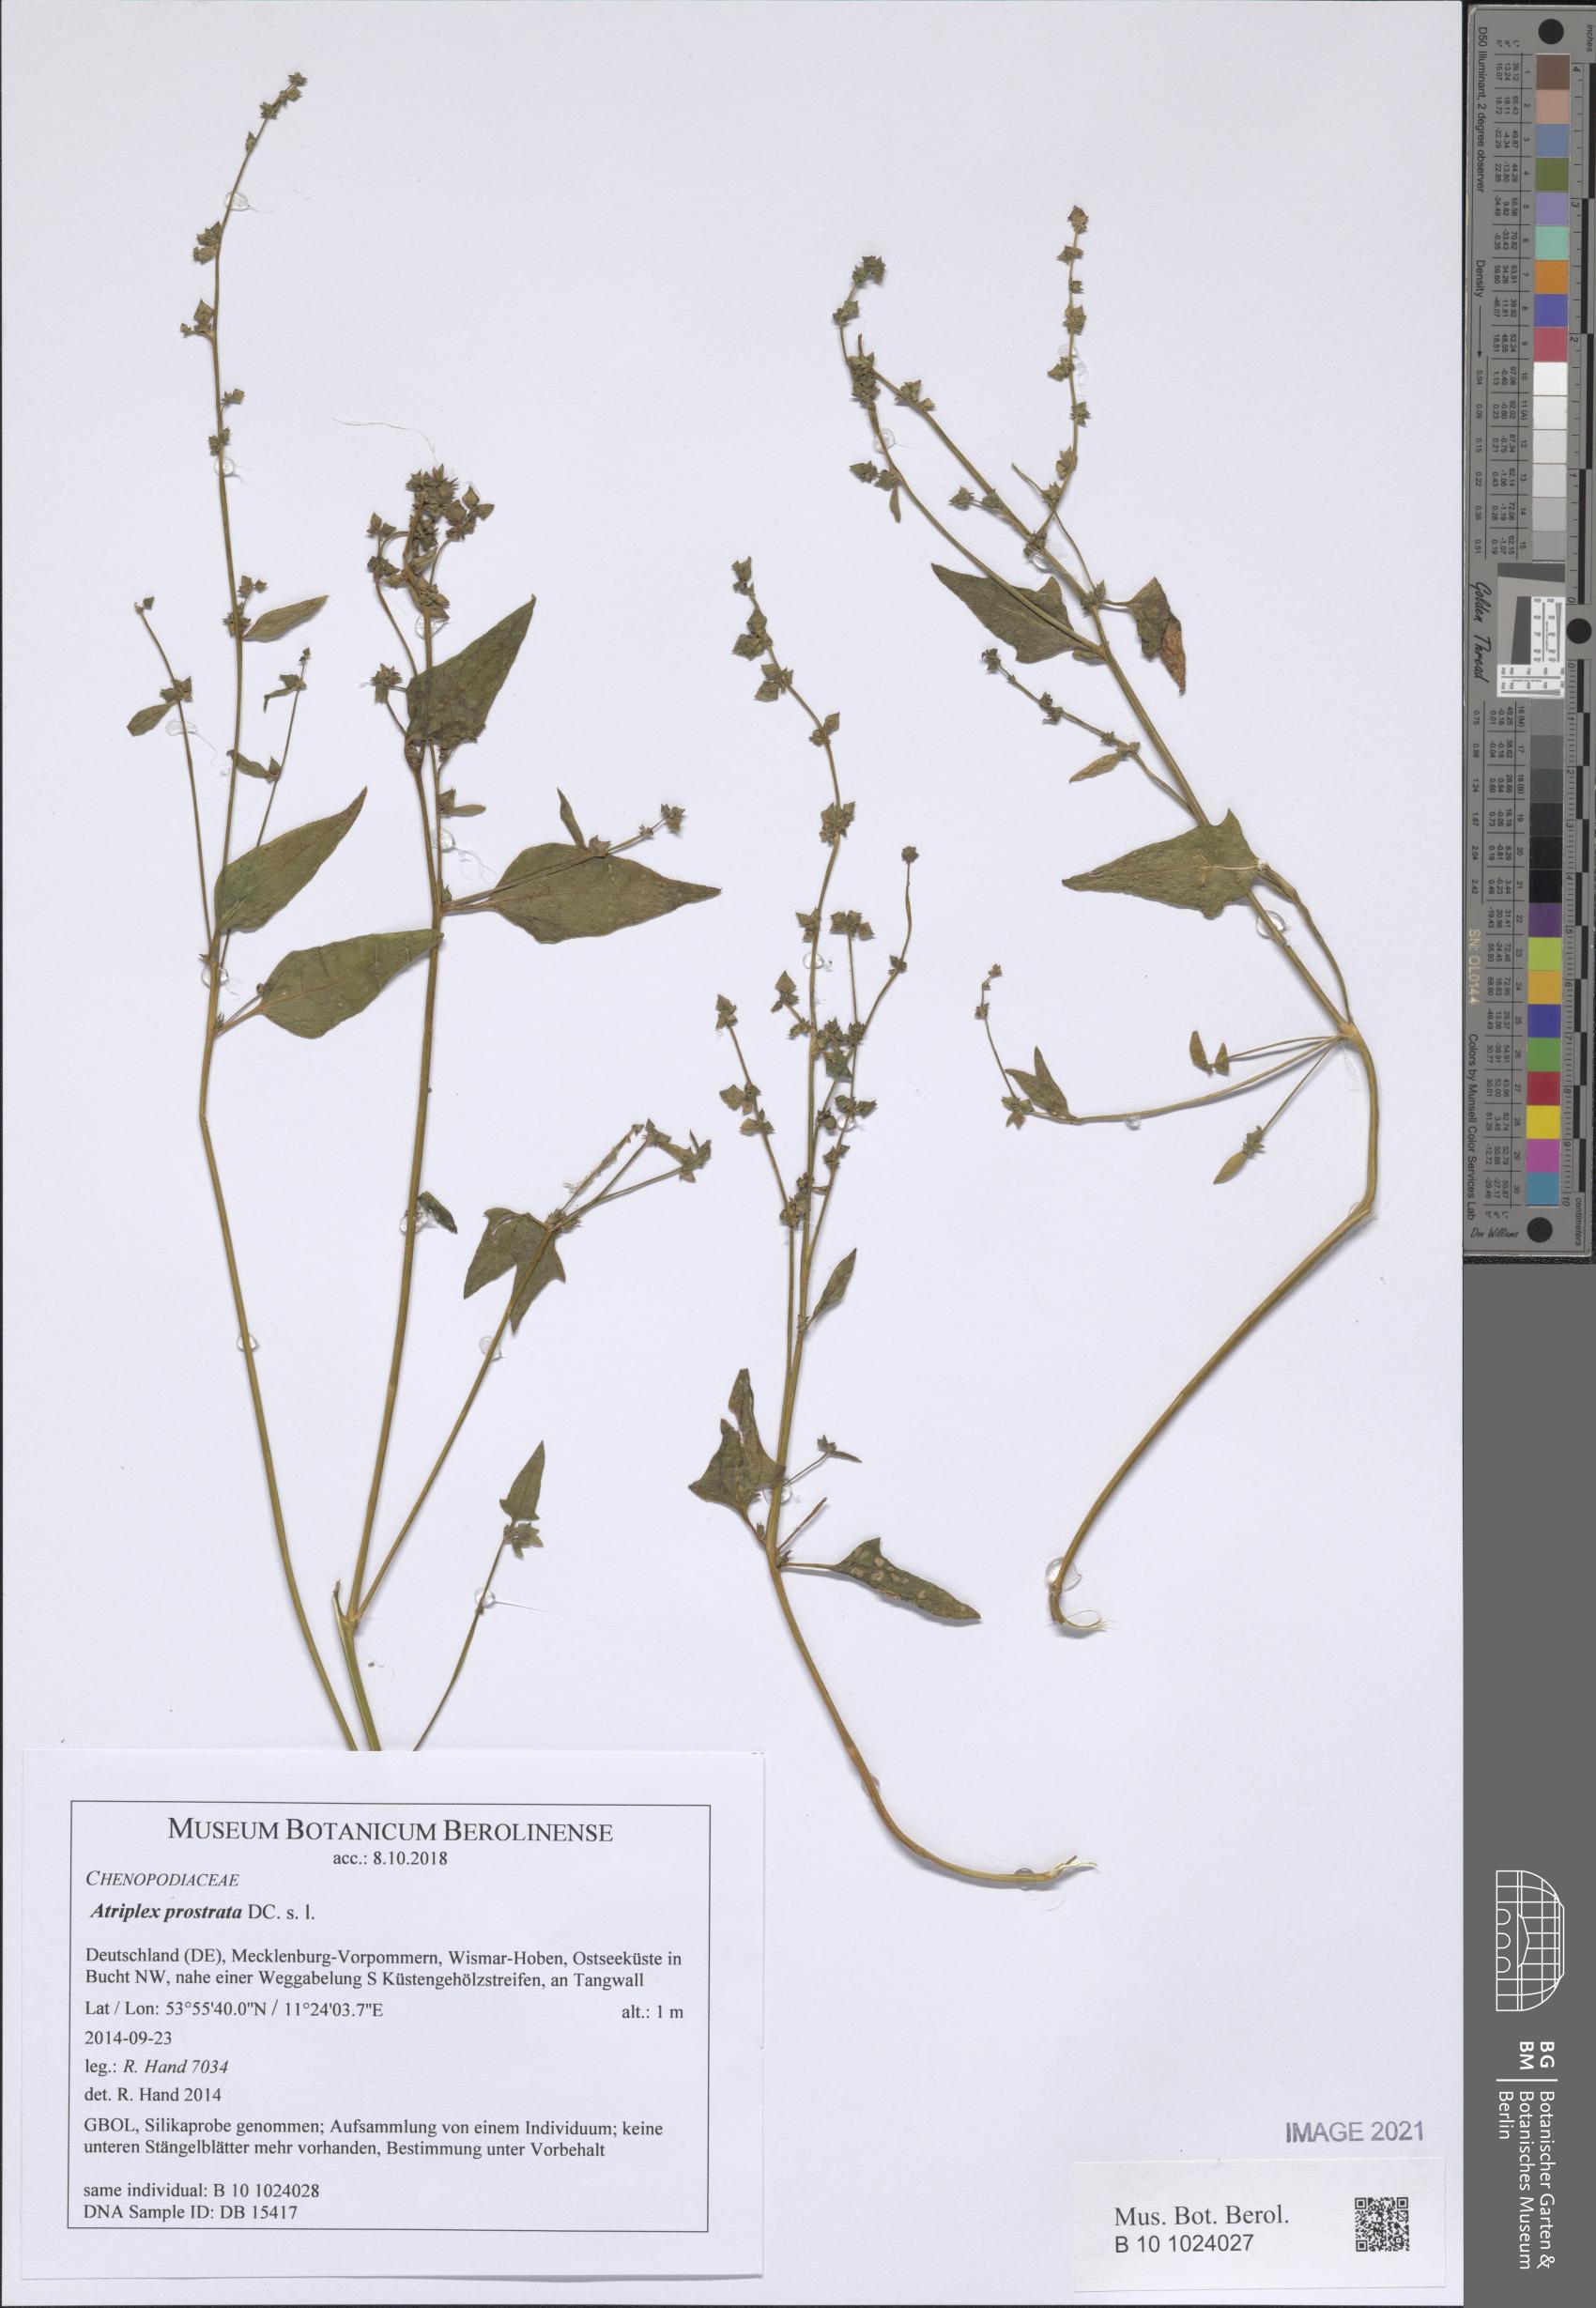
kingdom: Plantae
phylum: Tracheophyta
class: Magnoliopsida
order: Caryophyllales
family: Amaranthaceae
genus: Atriplex
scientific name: Atriplex prostrata
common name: Spear-leaved orache
